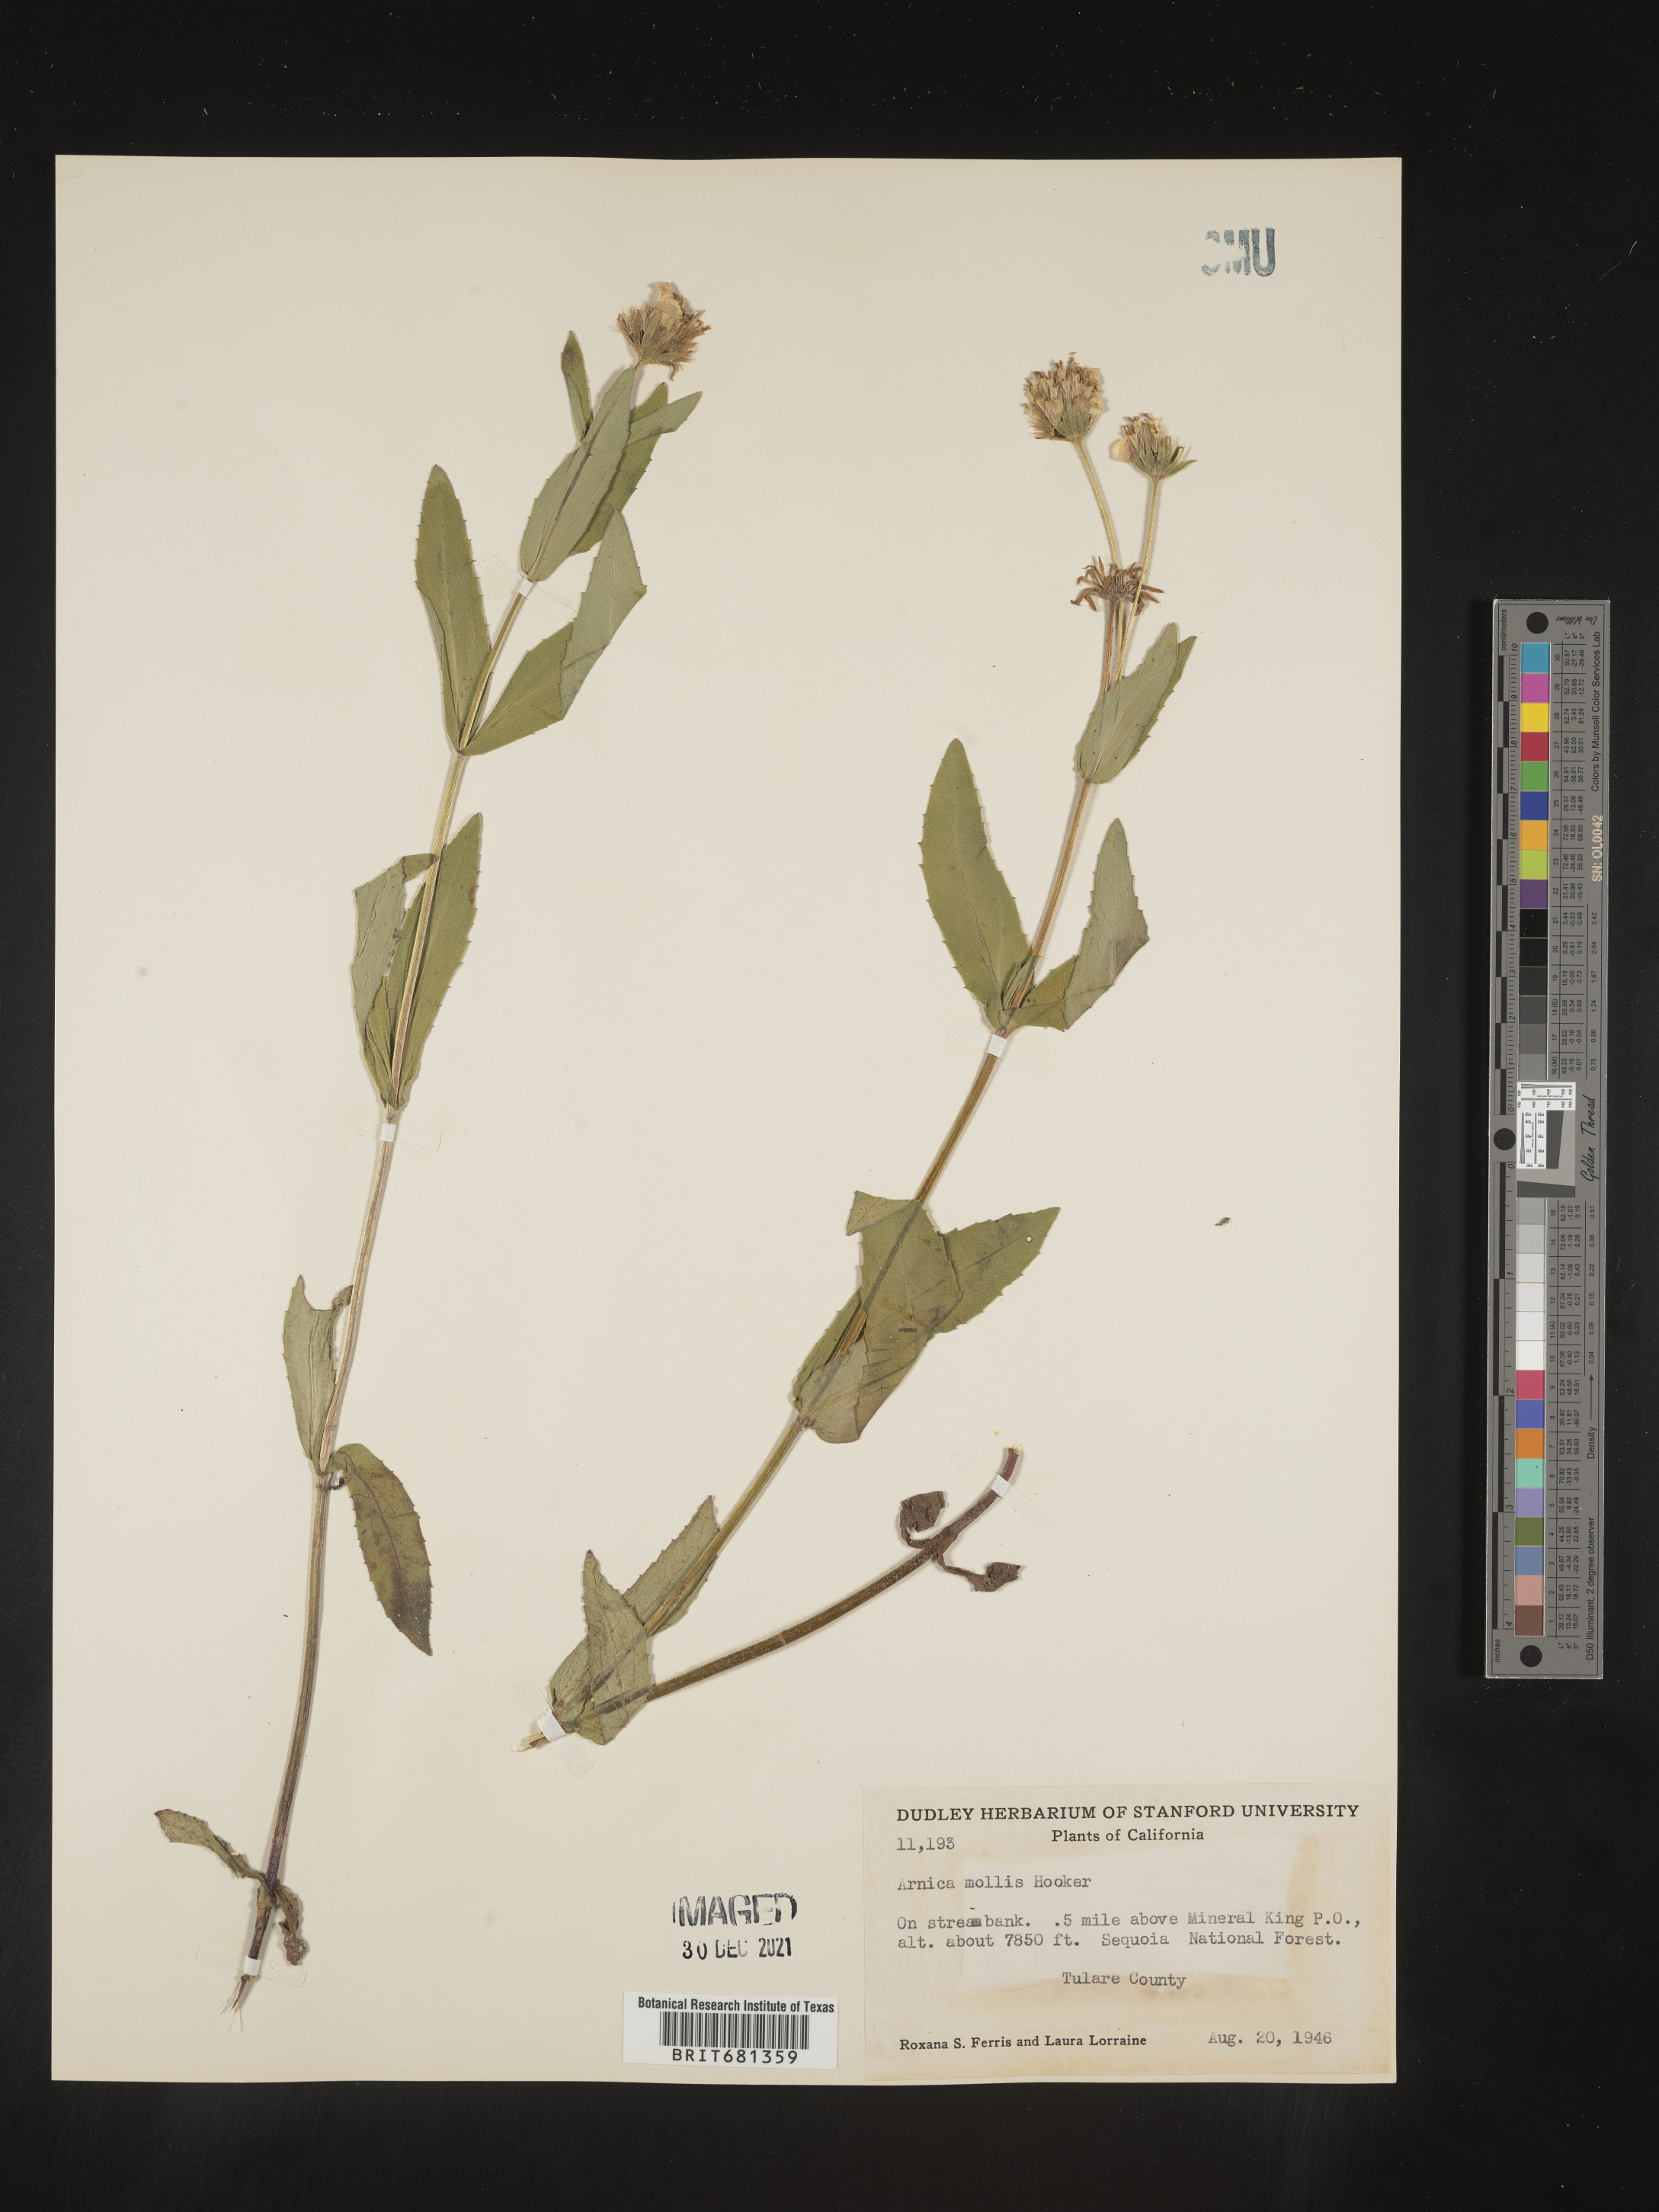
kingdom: Plantae
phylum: Tracheophyta
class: Magnoliopsida
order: Asterales
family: Asteraceae
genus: Arnica
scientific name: Arnica mollis
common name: Hairy arnica
